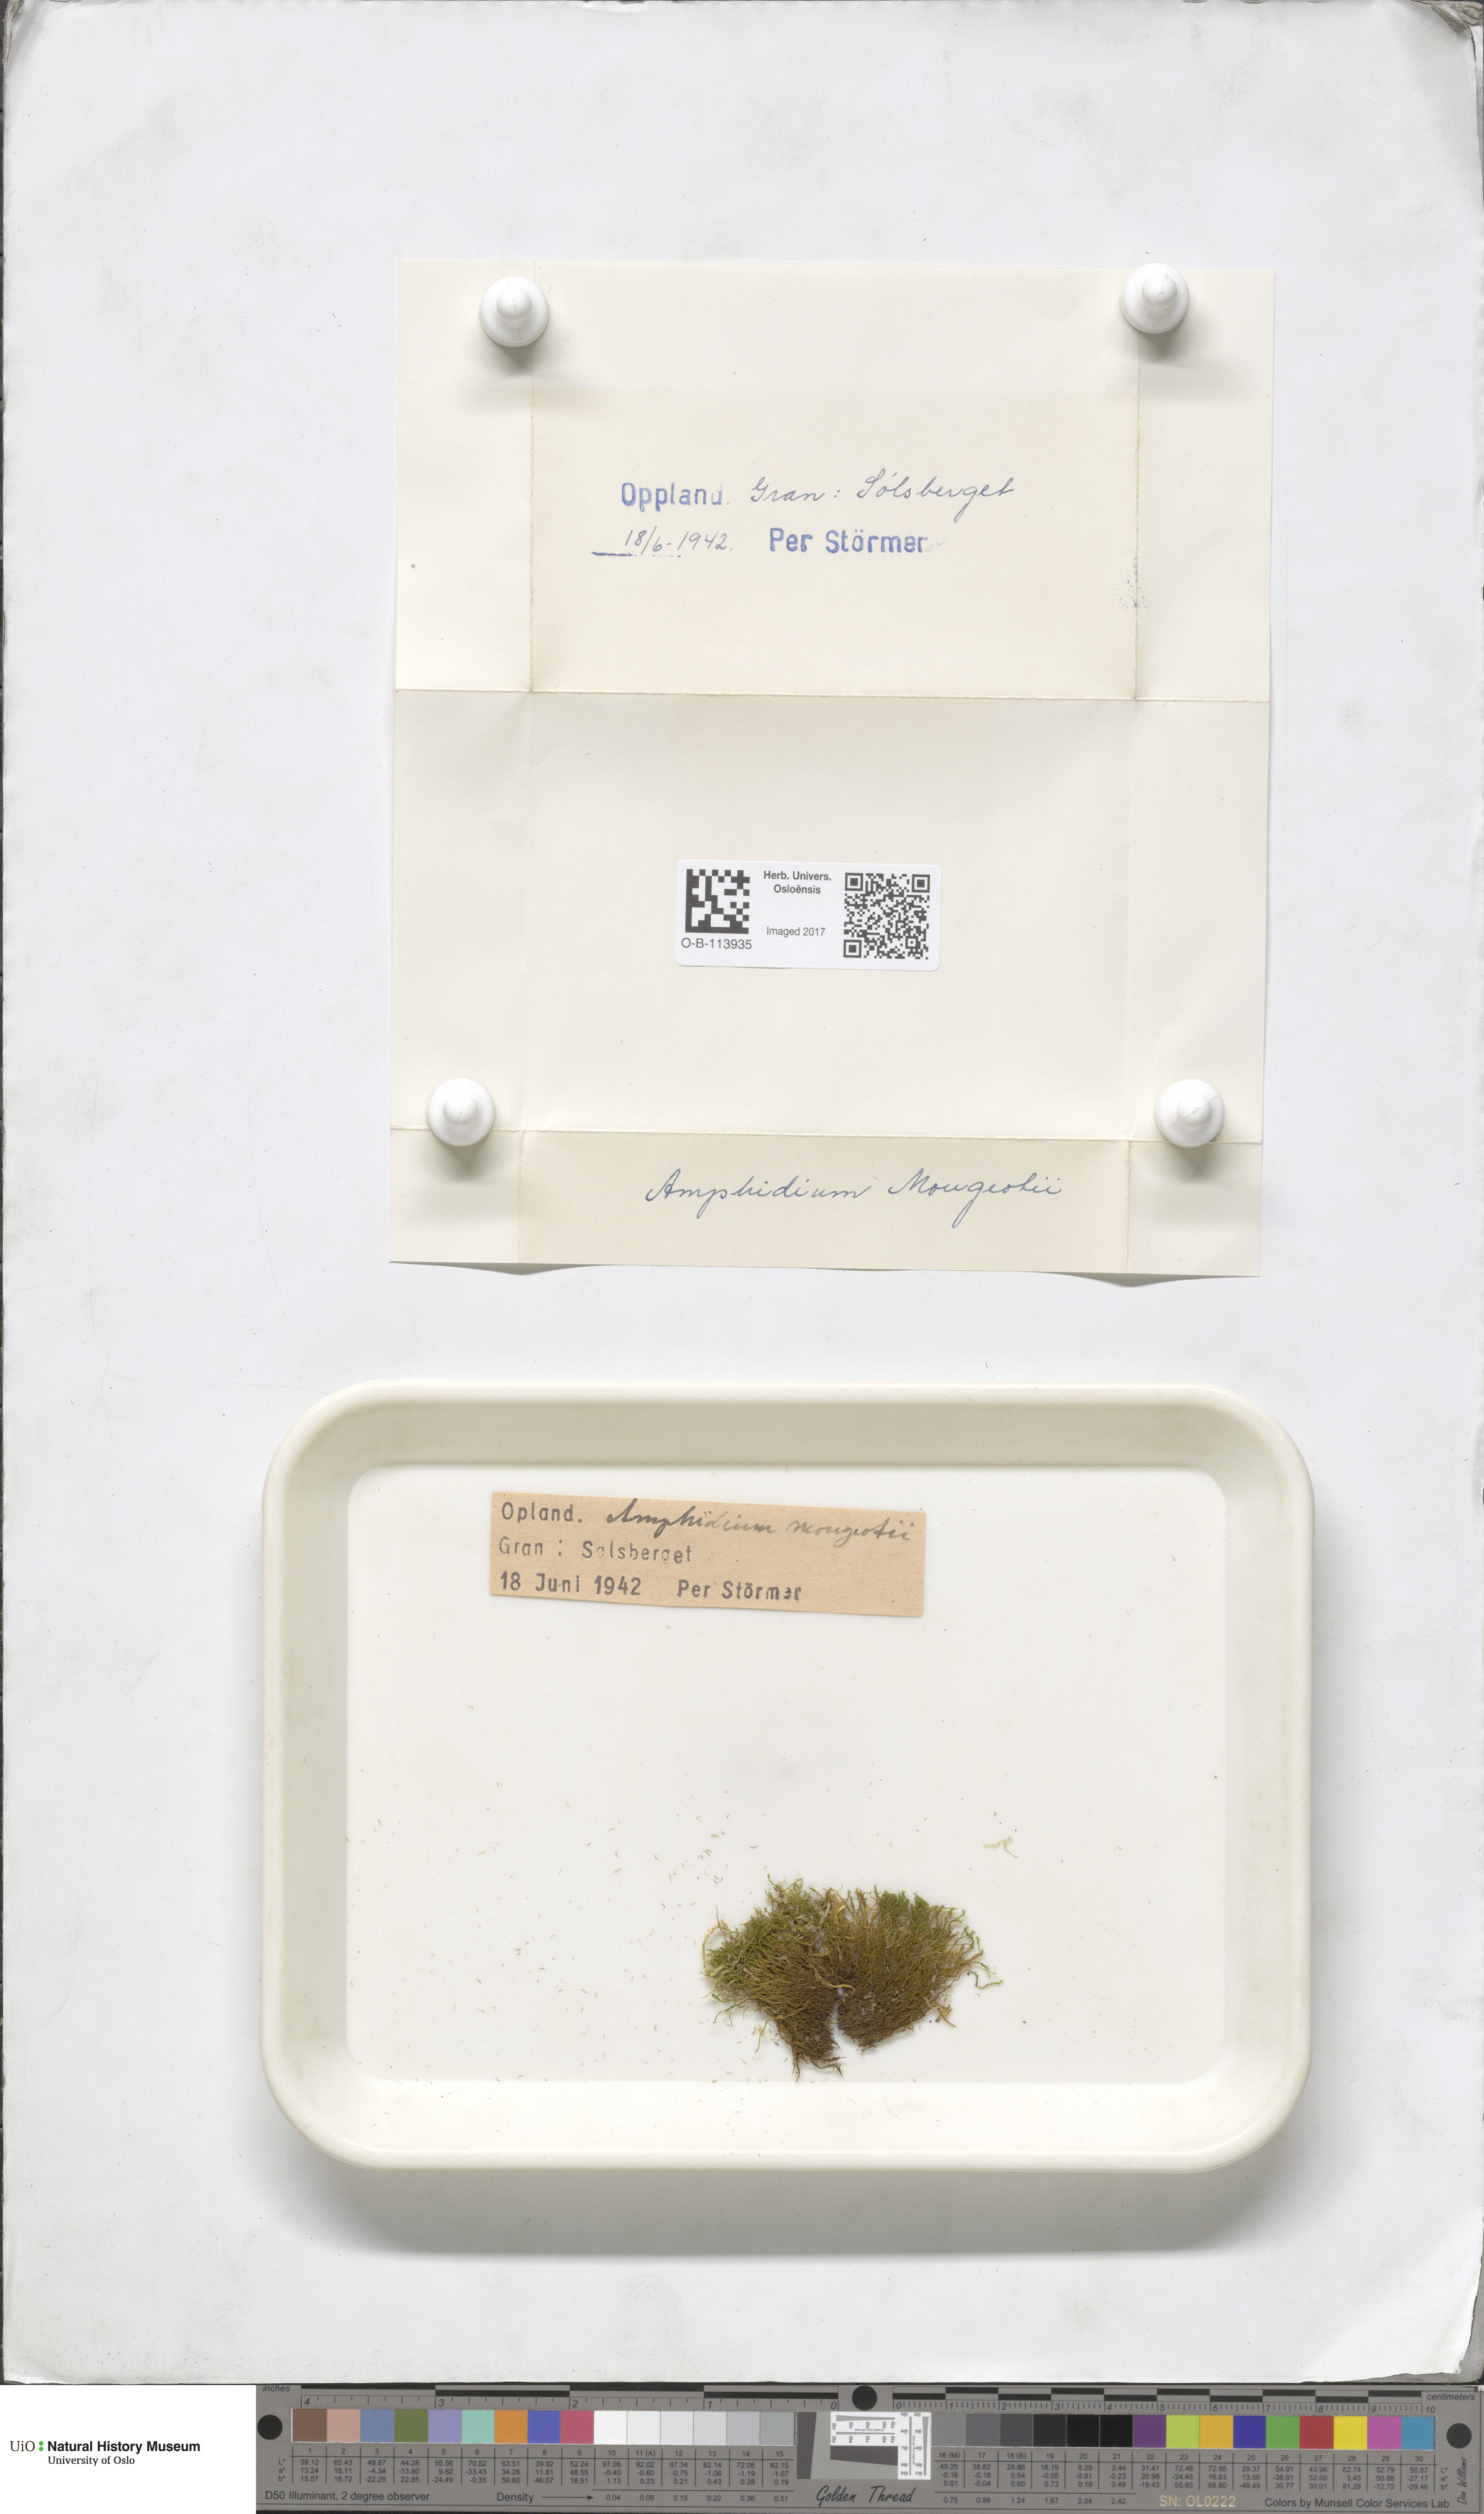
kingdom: Plantae
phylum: Bryophyta
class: Bryopsida
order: Dicranales
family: Amphidiaceae
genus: Amphidium
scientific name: Amphidium mougeotii
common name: Mougeot's yoke moss
